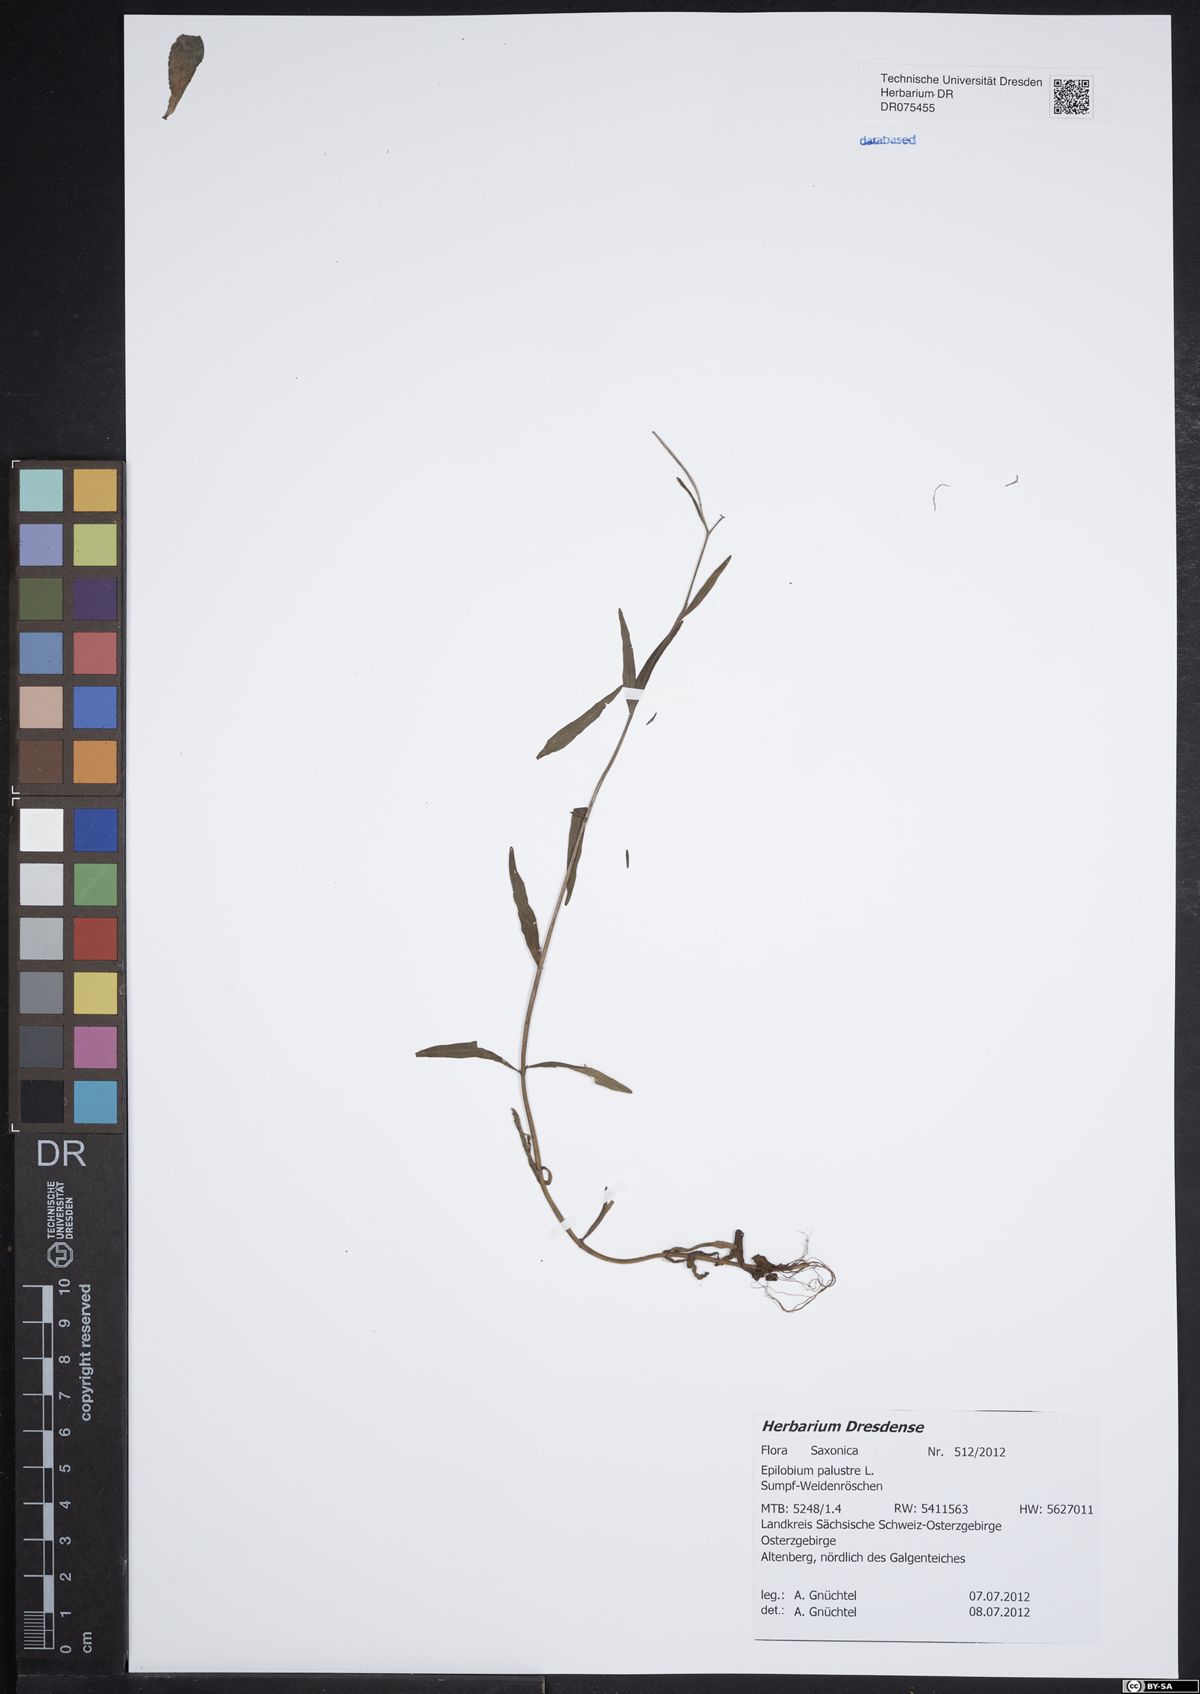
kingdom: Plantae
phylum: Tracheophyta
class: Magnoliopsida
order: Myrtales
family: Onagraceae
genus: Epilobium
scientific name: Epilobium palustre
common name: Marsh willowherb
